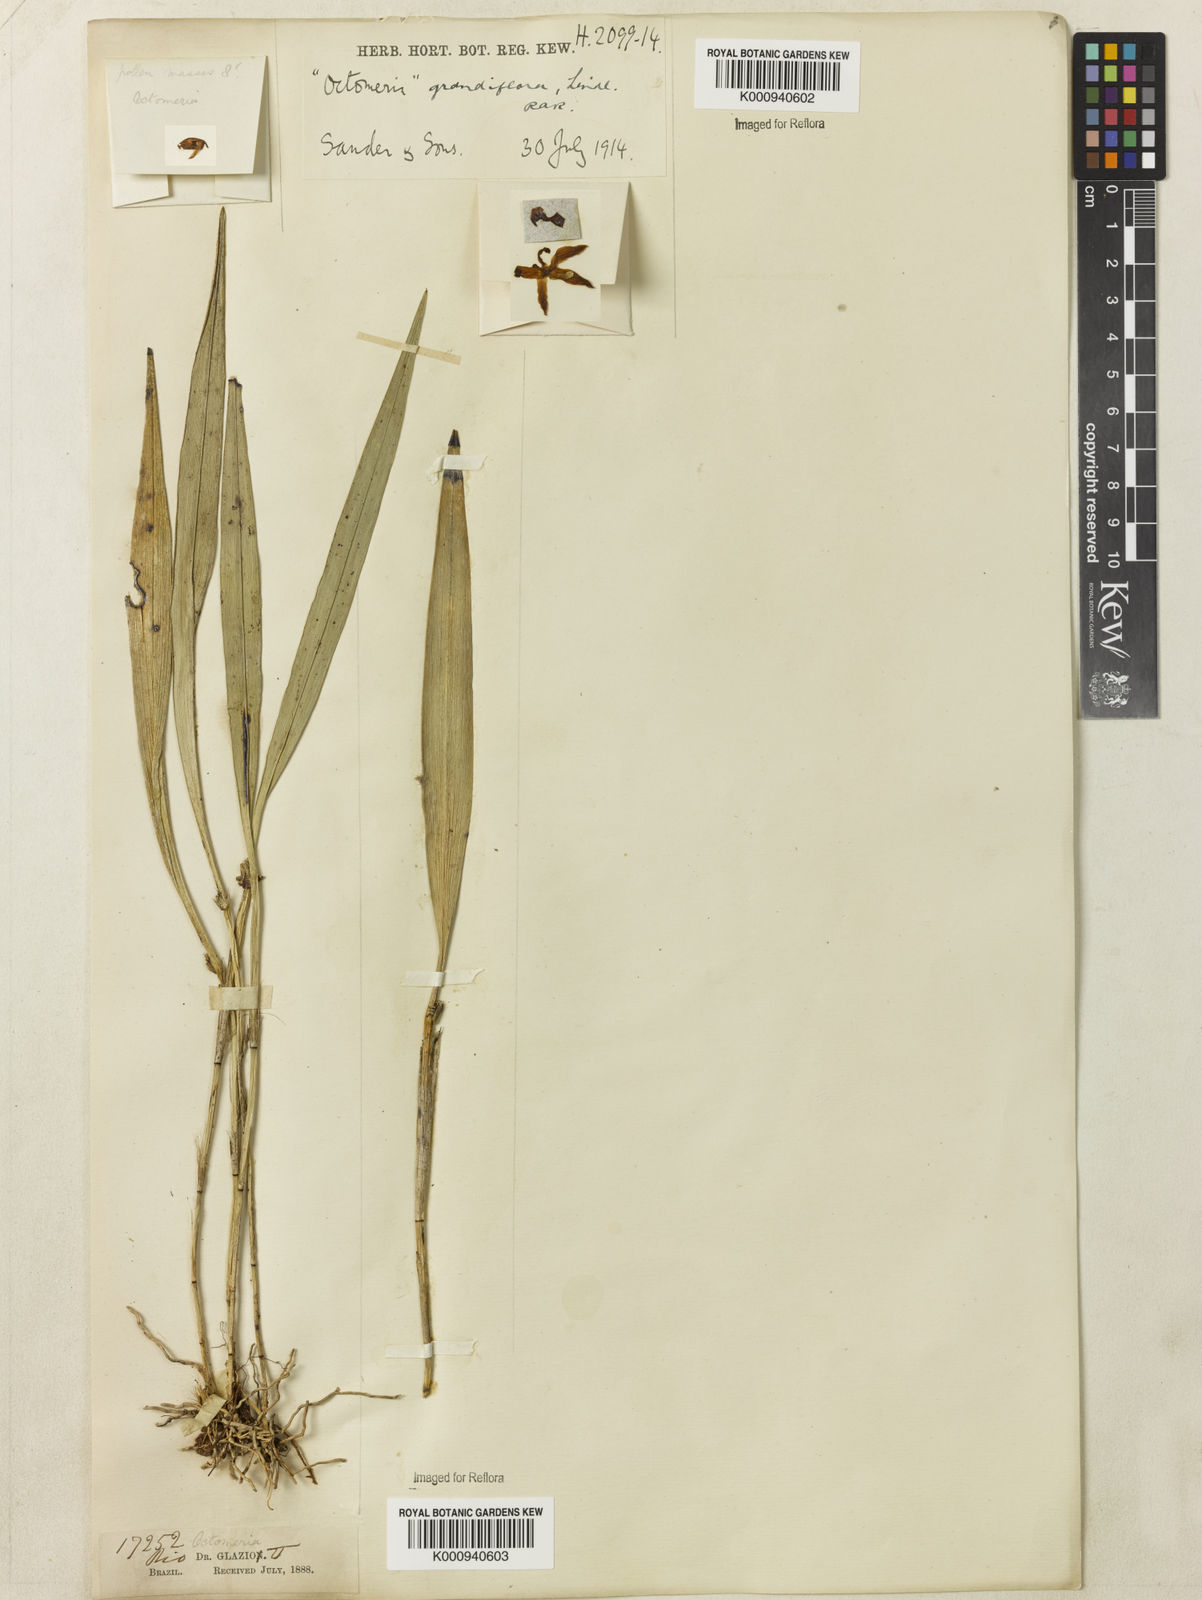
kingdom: Plantae
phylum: Tracheophyta
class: Liliopsida
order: Asparagales
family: Orchidaceae
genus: Octomeria
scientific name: Octomeria grandiflora
